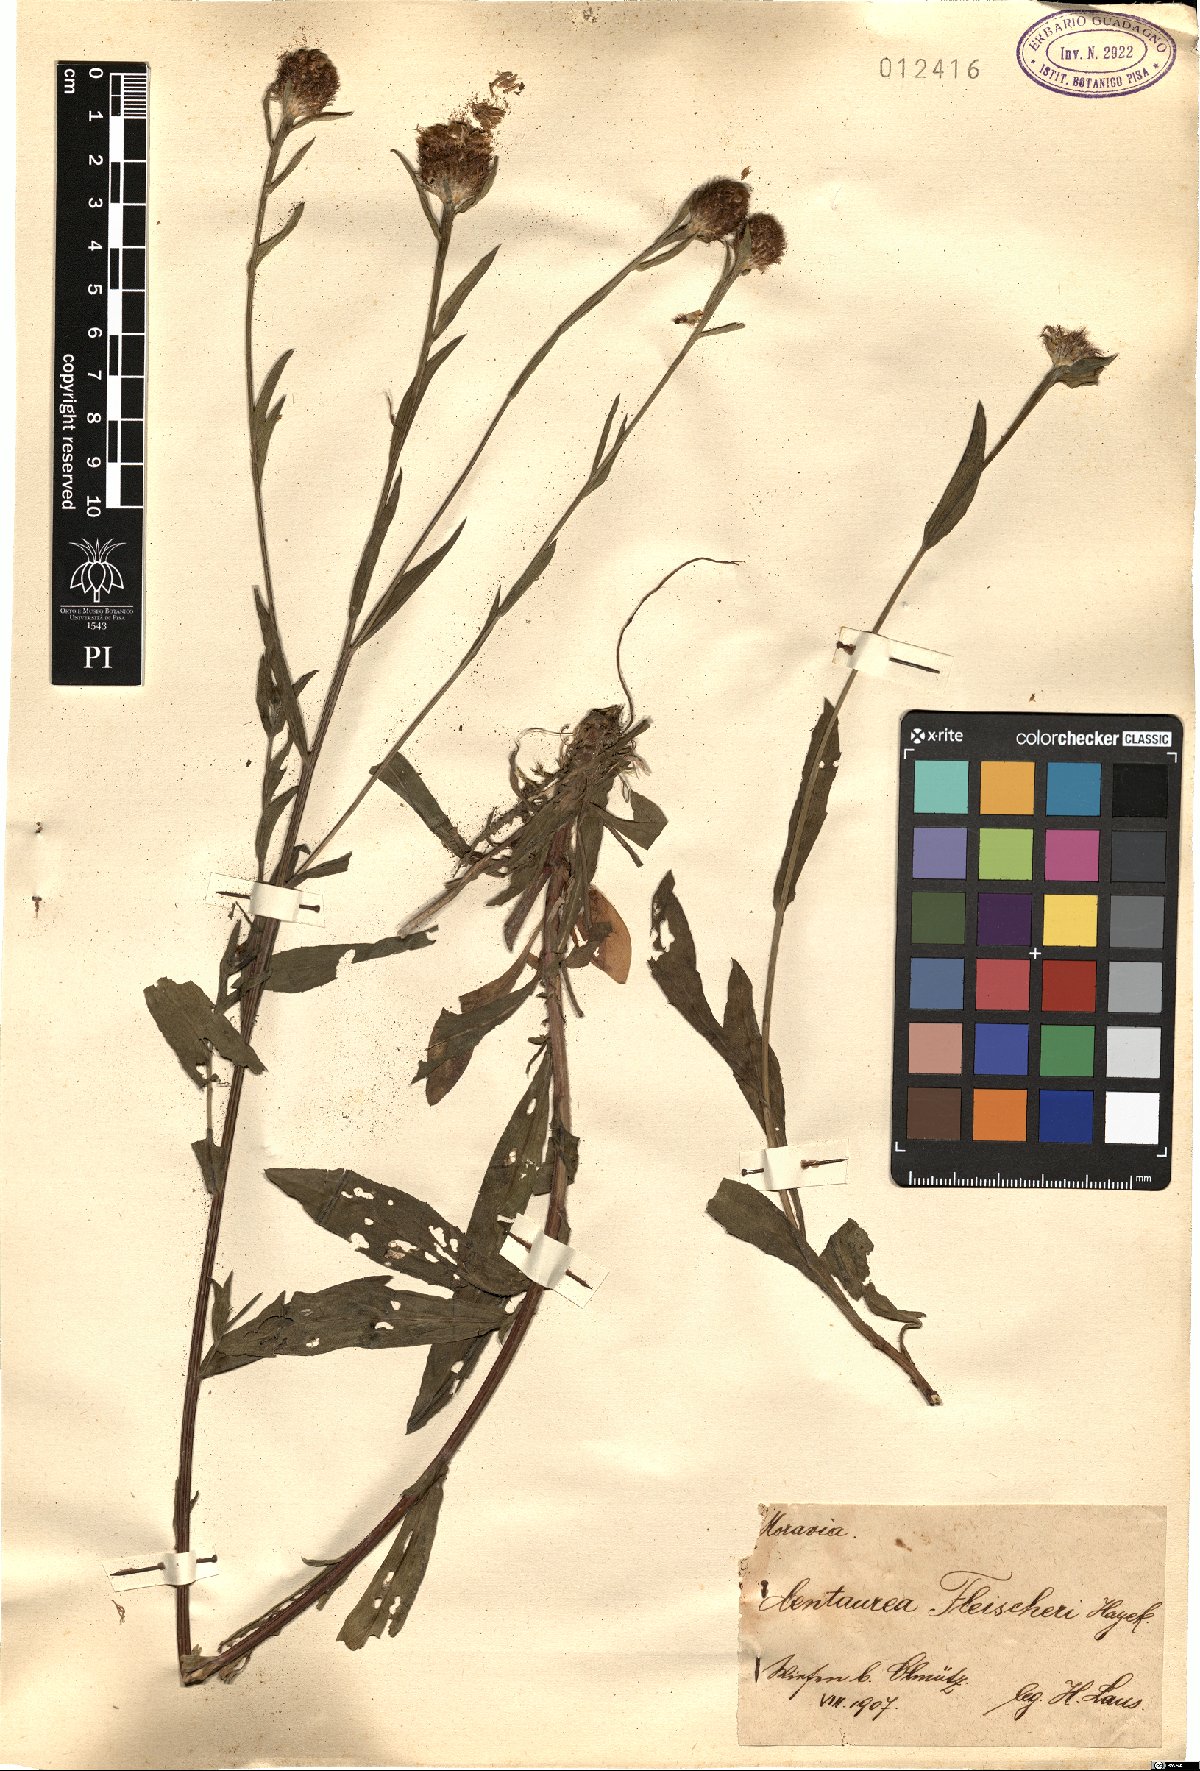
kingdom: Plantae
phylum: Tracheophyta
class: Magnoliopsida
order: Asterales
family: Asteraceae
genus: Centaurea
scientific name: Centaurea fleischeri
